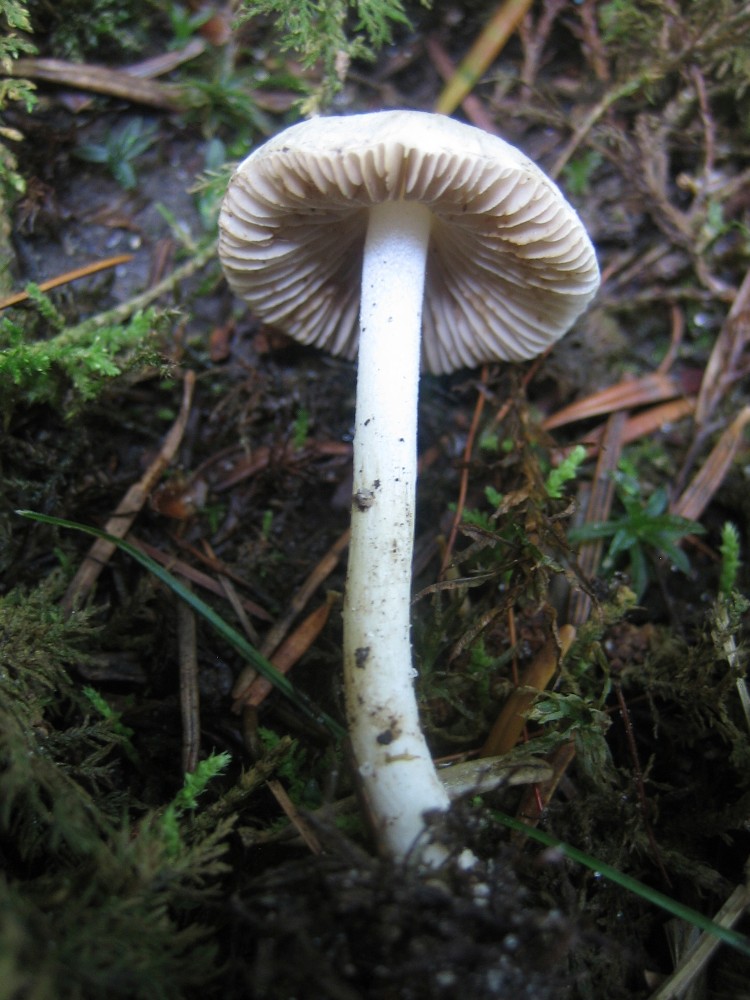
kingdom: Fungi
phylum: Basidiomycota
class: Agaricomycetes
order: Agaricales
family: Inocybaceae
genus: Inocybe
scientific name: Inocybe
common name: almindelig trævlhat
